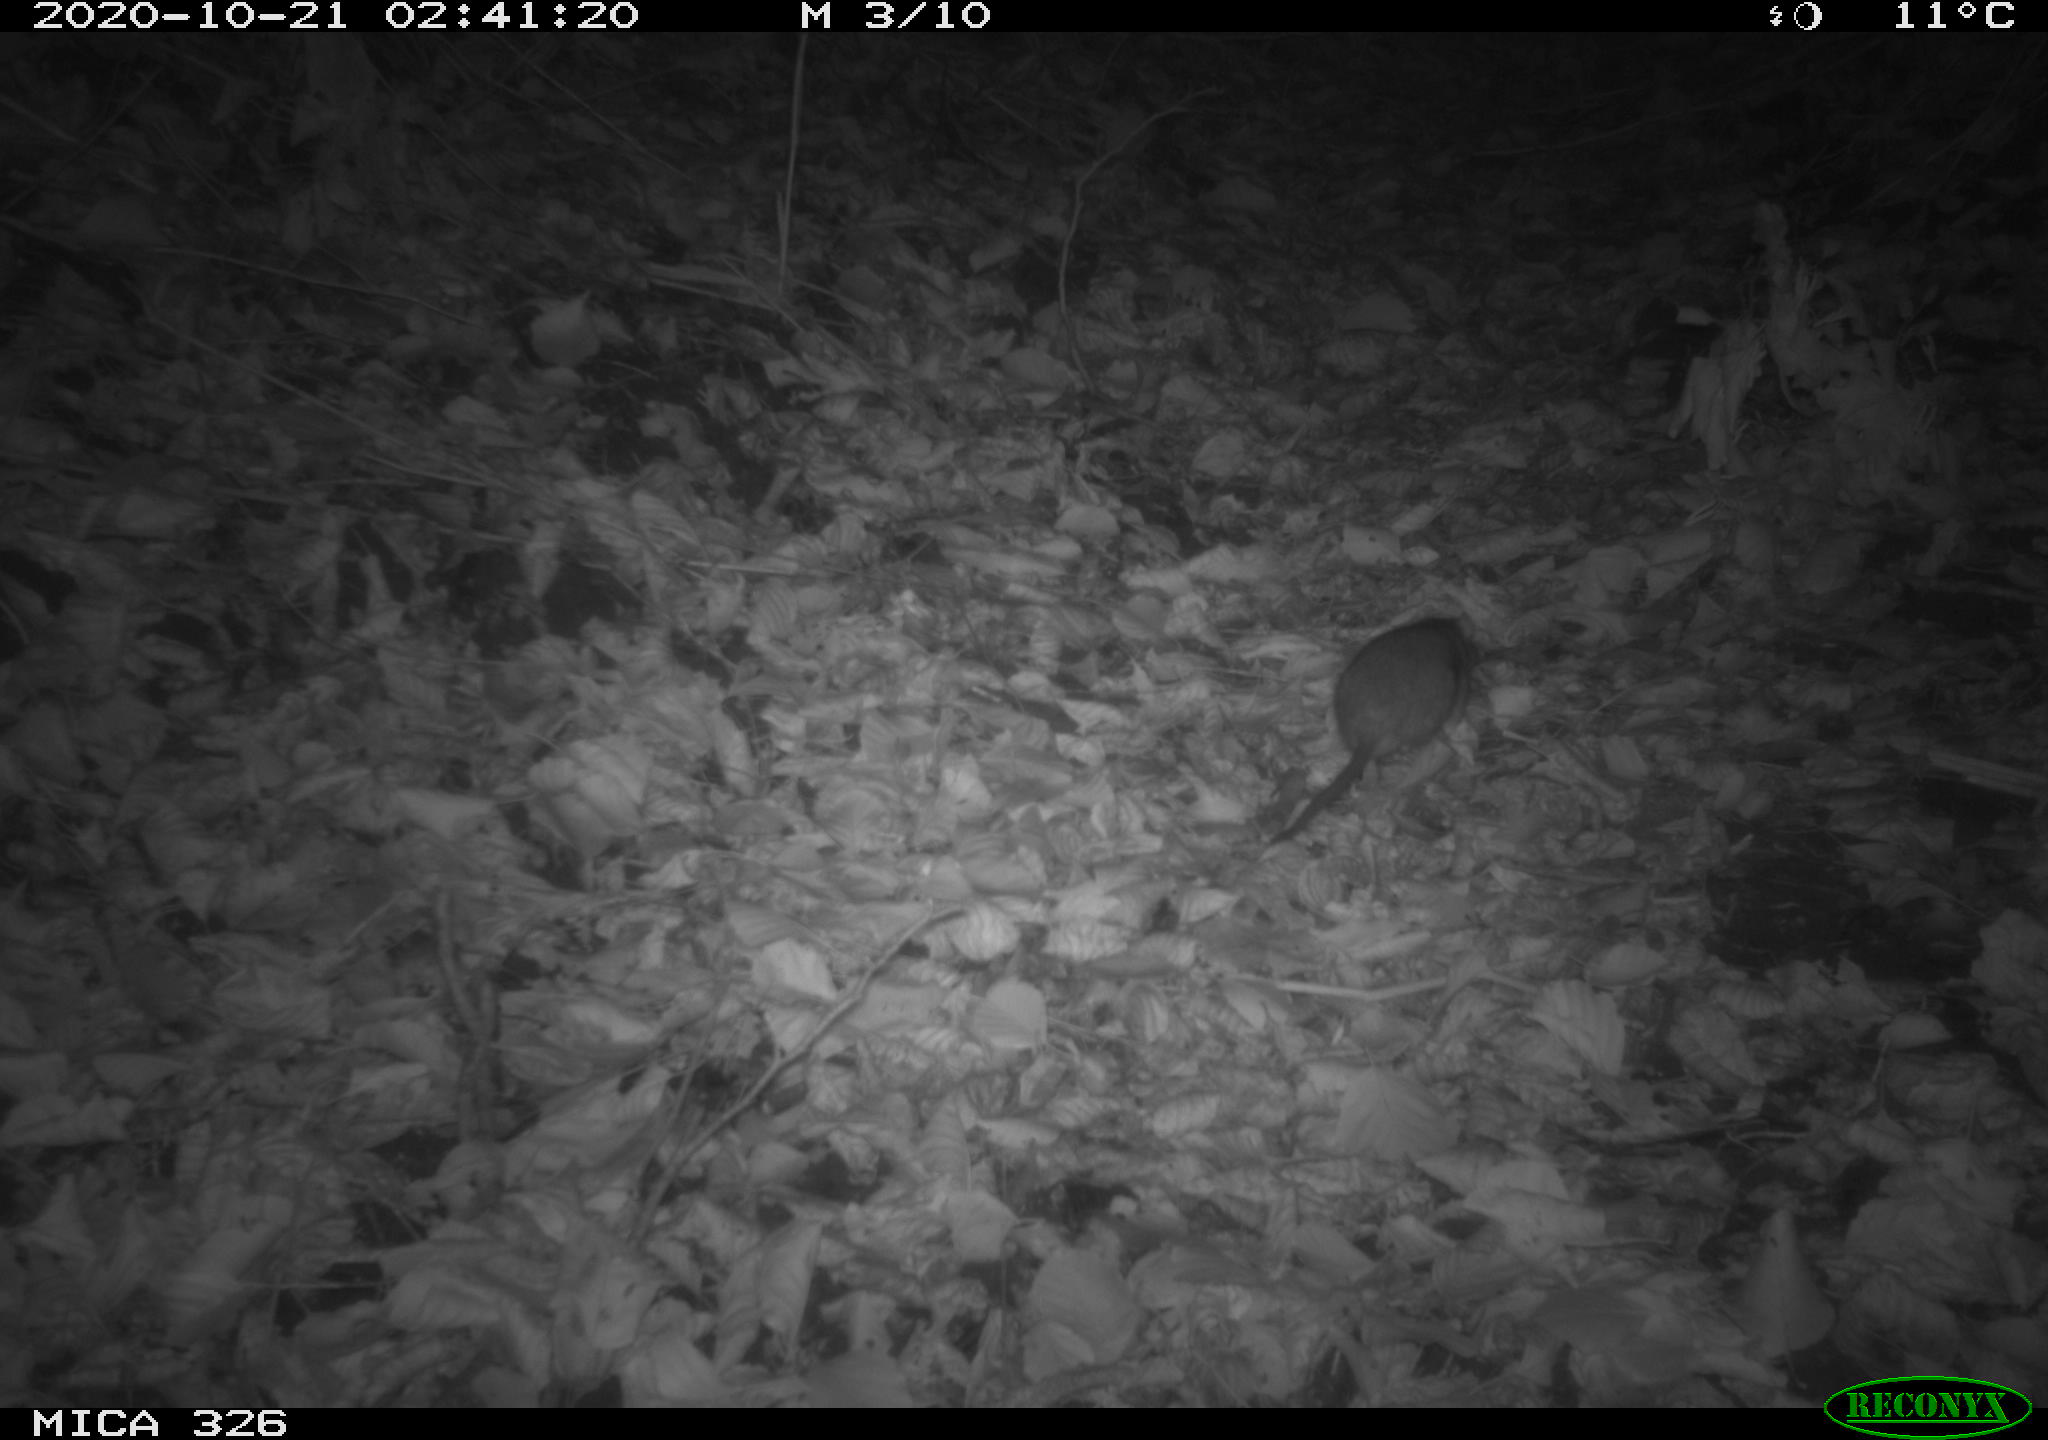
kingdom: Animalia
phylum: Chordata
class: Mammalia
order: Rodentia
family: Muridae
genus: Rattus
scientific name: Rattus norvegicus
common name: Brown rat
